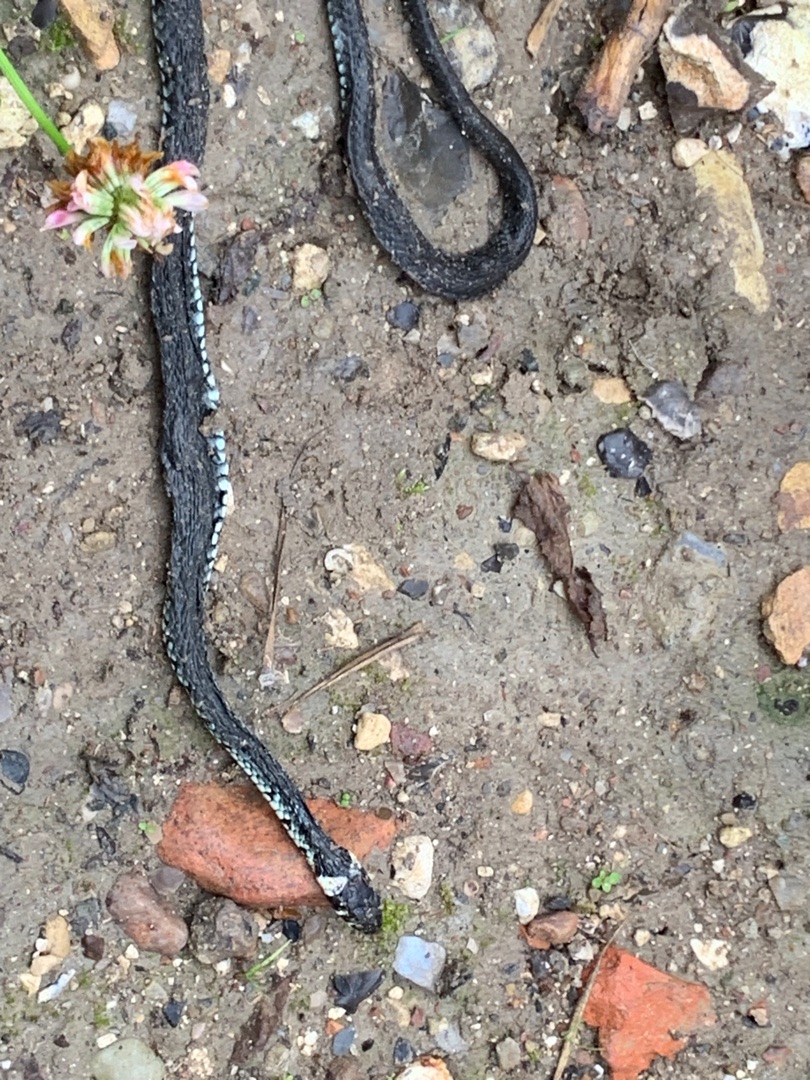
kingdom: Animalia
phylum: Chordata
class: Squamata
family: Colubridae
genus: Natrix
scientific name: Natrix natrix
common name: Snog
